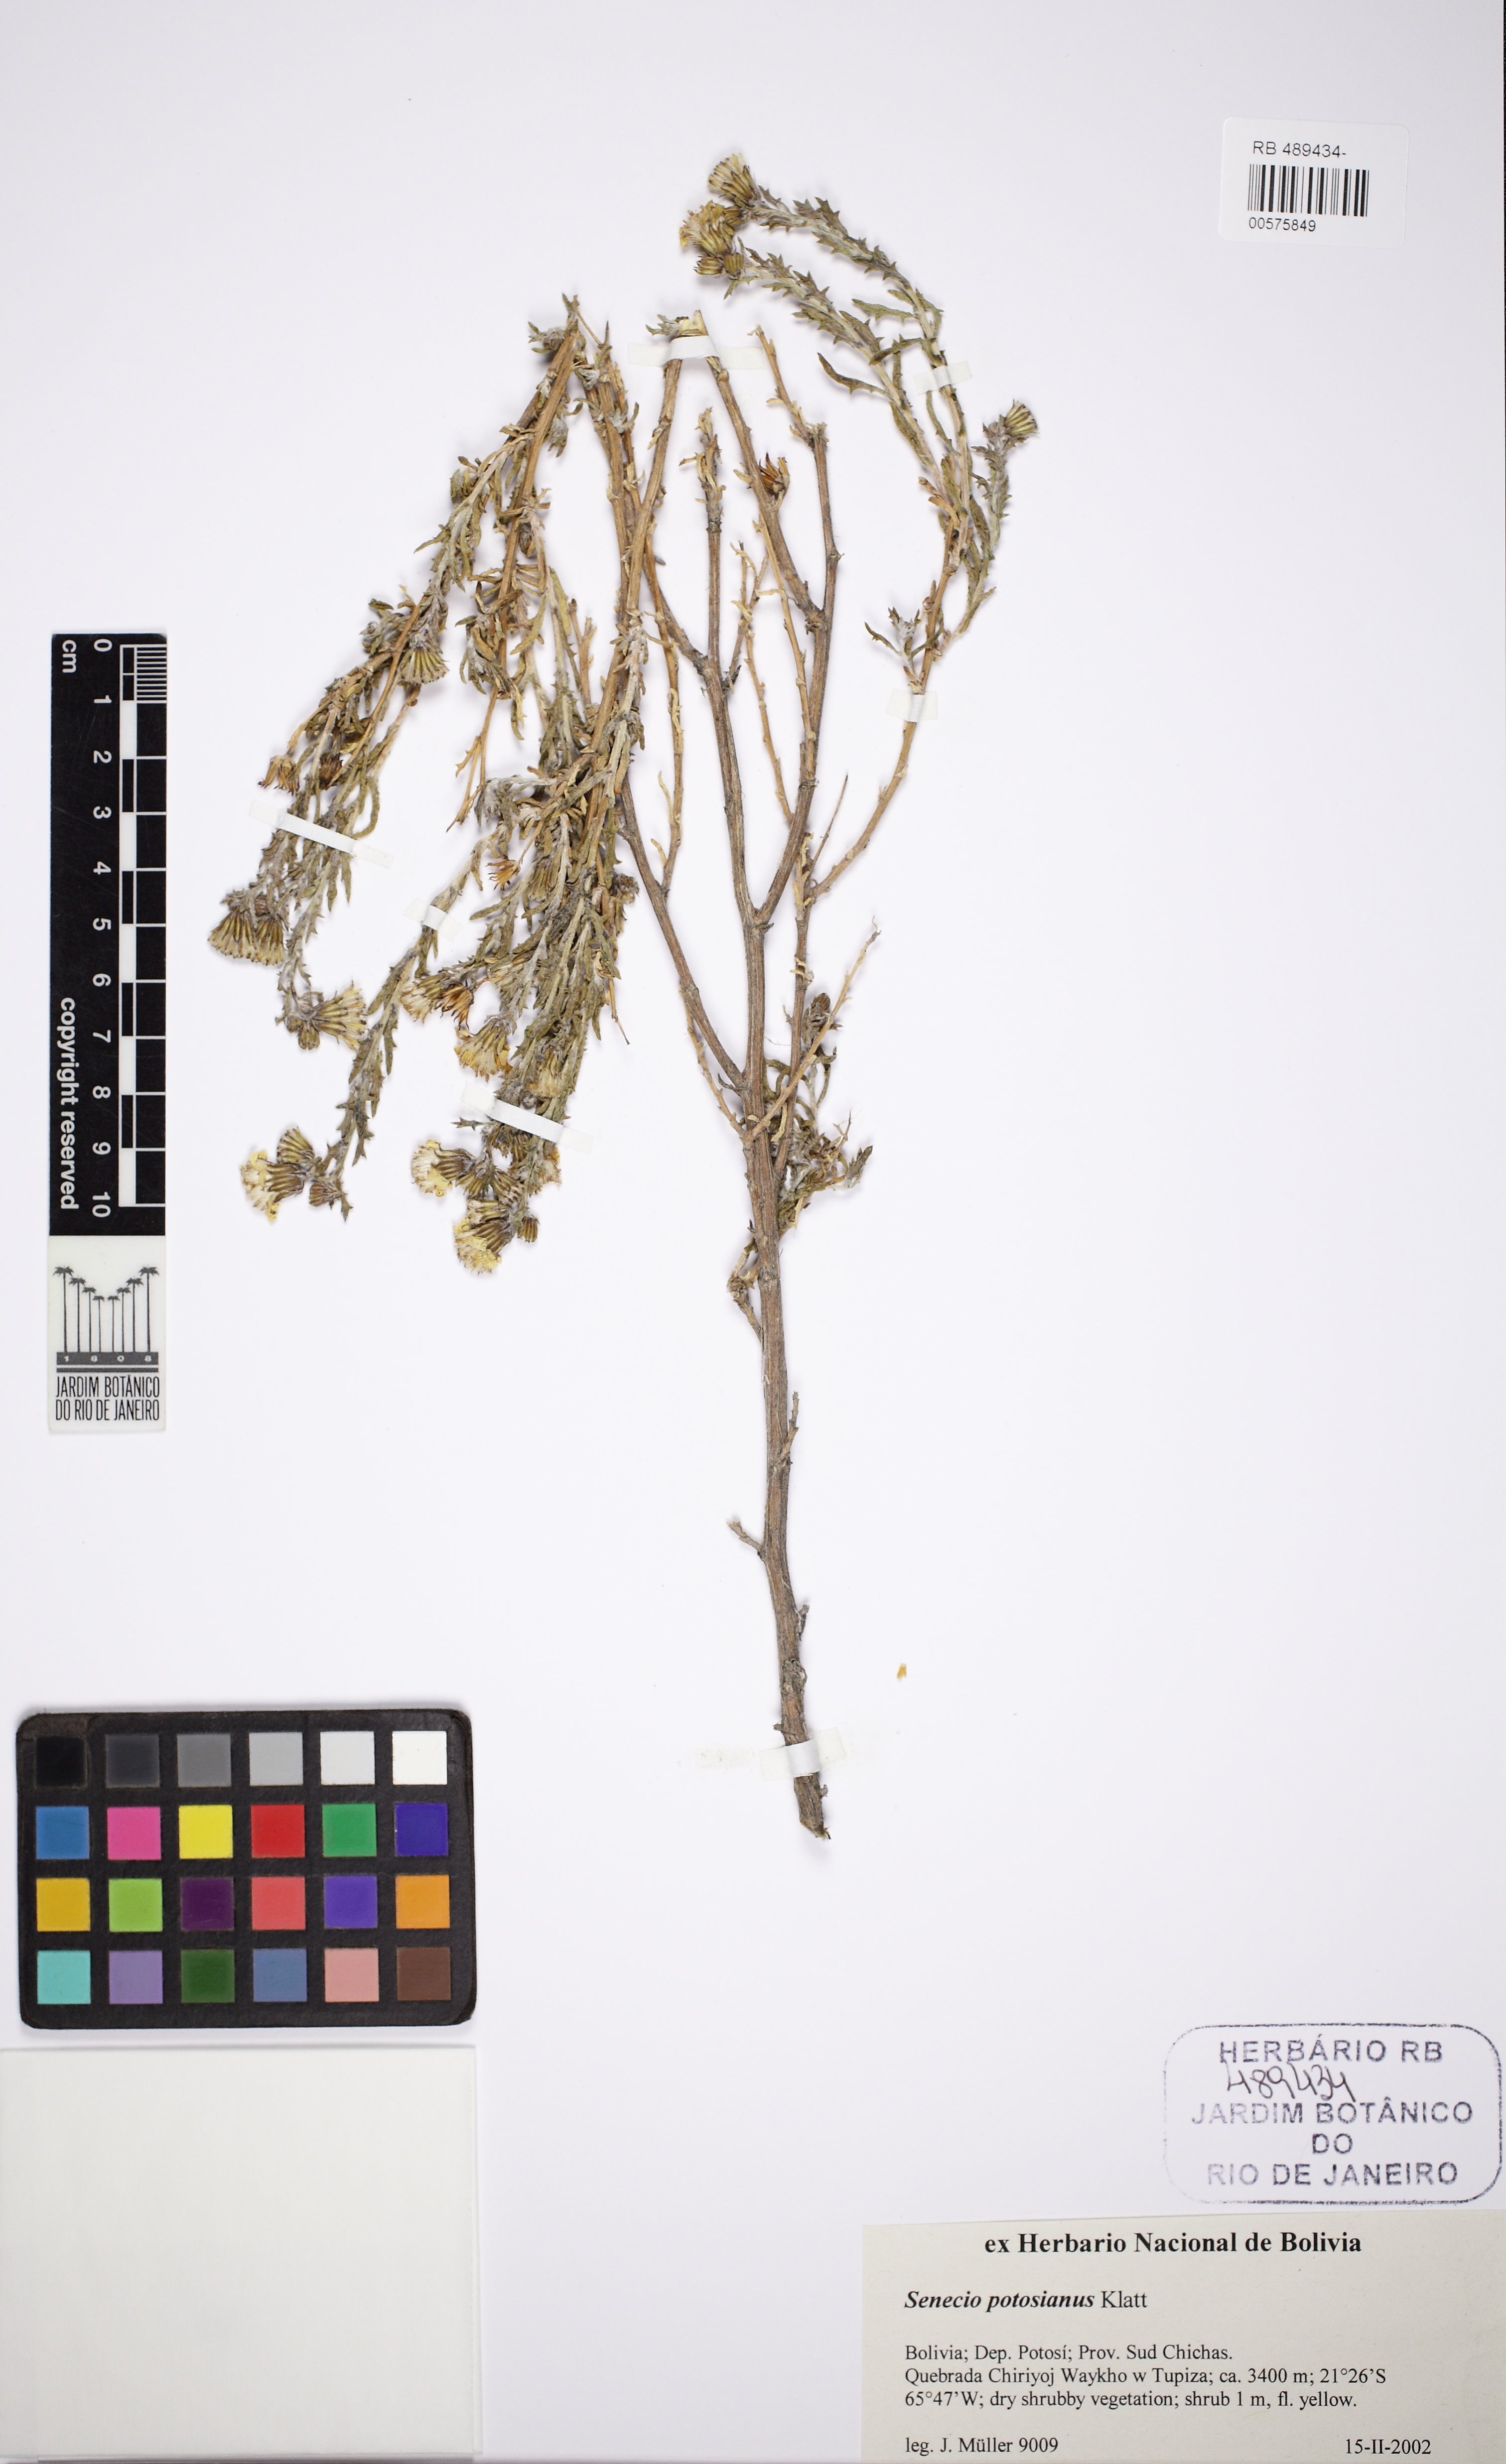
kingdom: Plantae
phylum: Tracheophyta
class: Magnoliopsida
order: Asterales
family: Asteraceae
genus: Senecio
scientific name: Senecio potosianus
